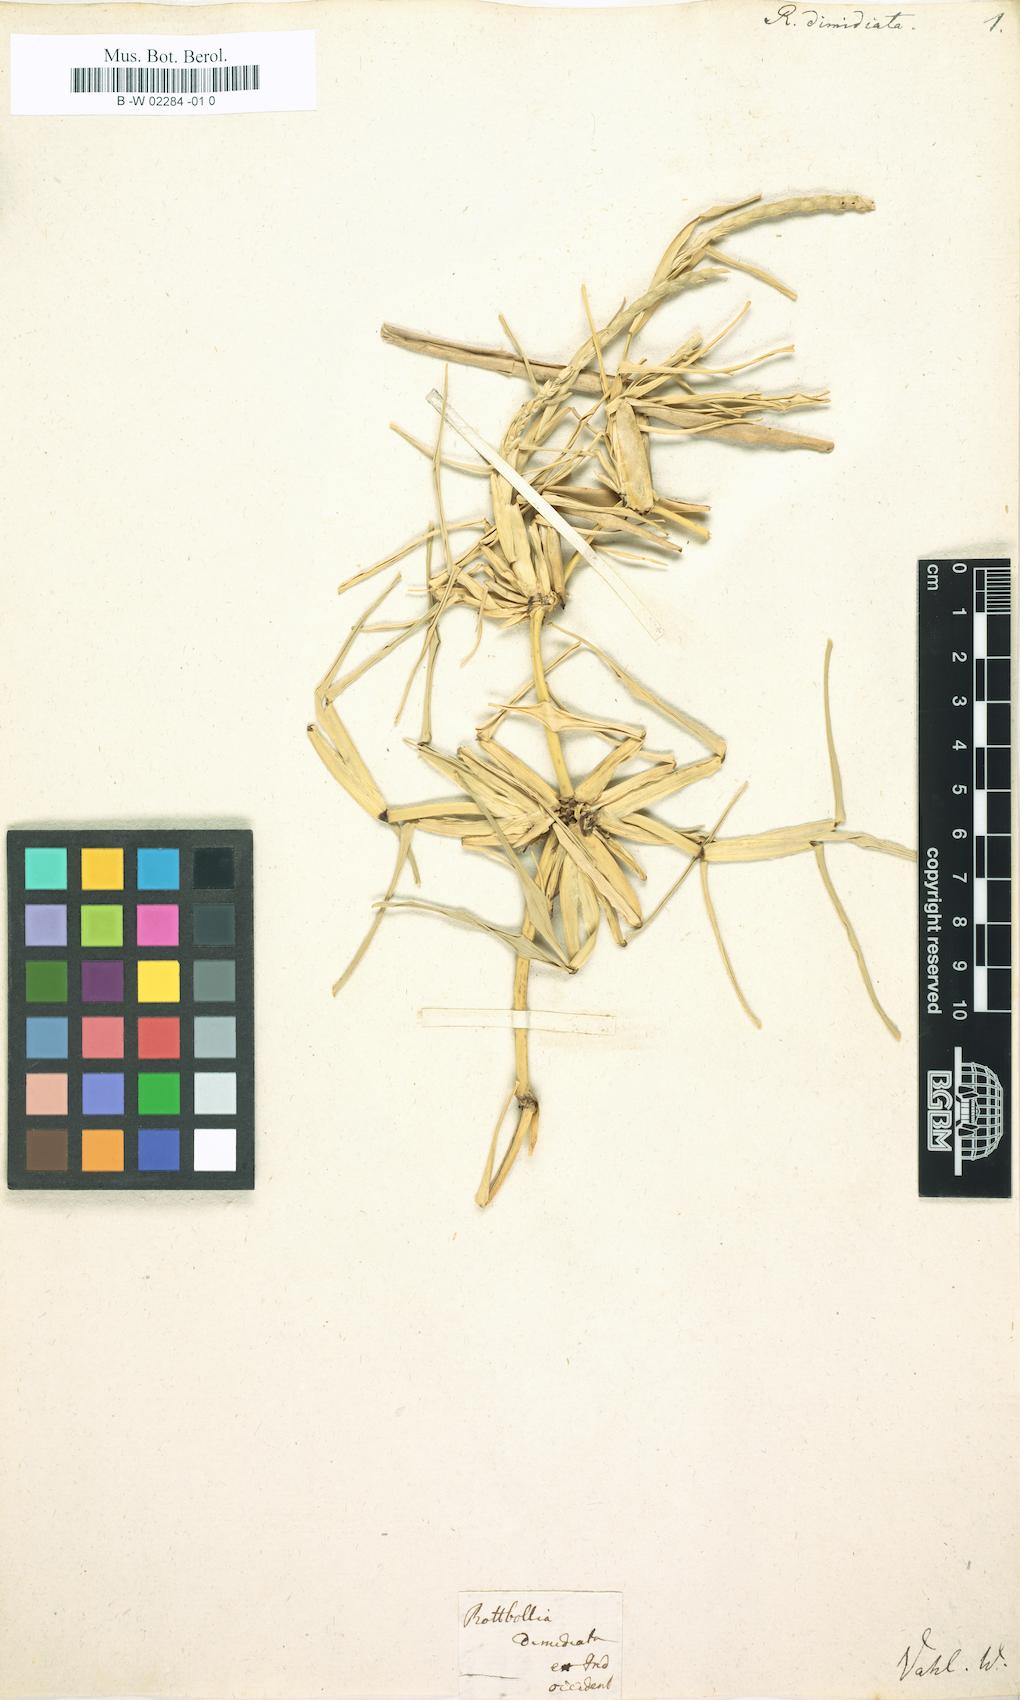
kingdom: Plantae
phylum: Tracheophyta
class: Liliopsida
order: Poales
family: Poaceae
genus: Stenotaphrum
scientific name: Stenotaphrum
